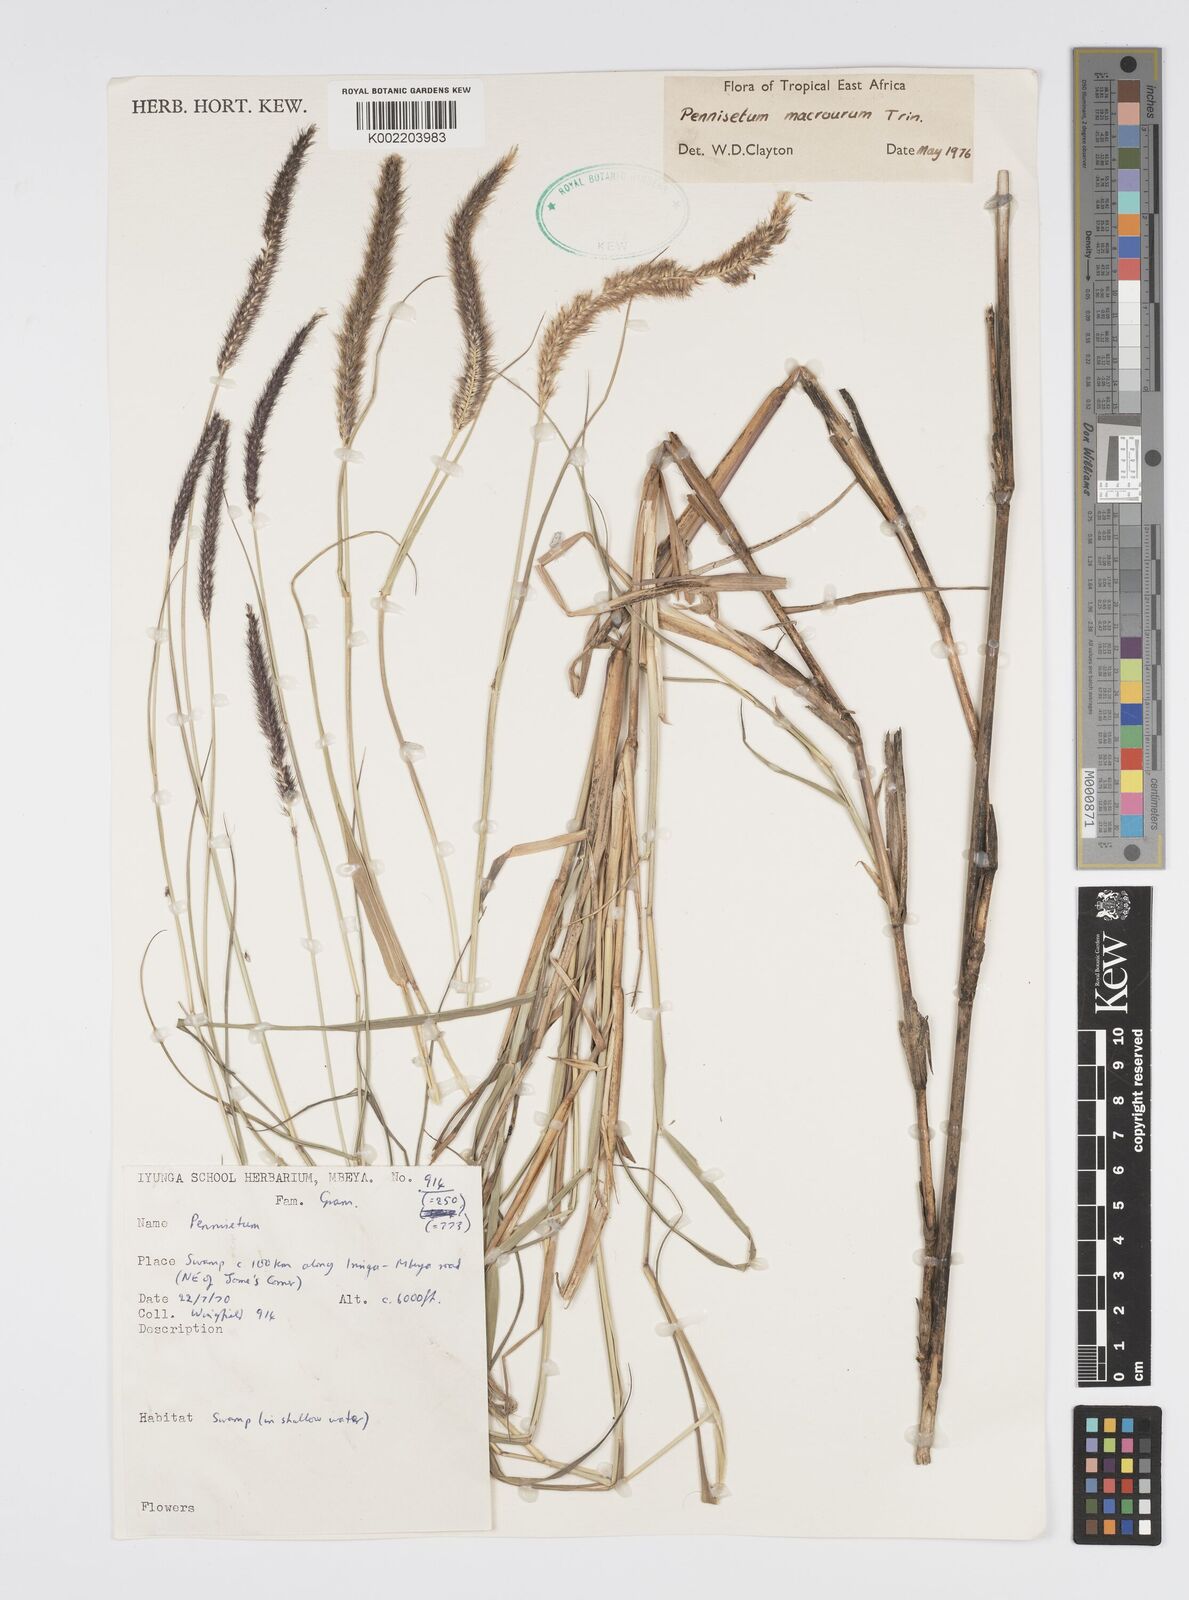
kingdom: Plantae
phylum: Tracheophyta
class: Liliopsida
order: Poales
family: Poaceae
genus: Cenchrus
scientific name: Cenchrus caudatus
